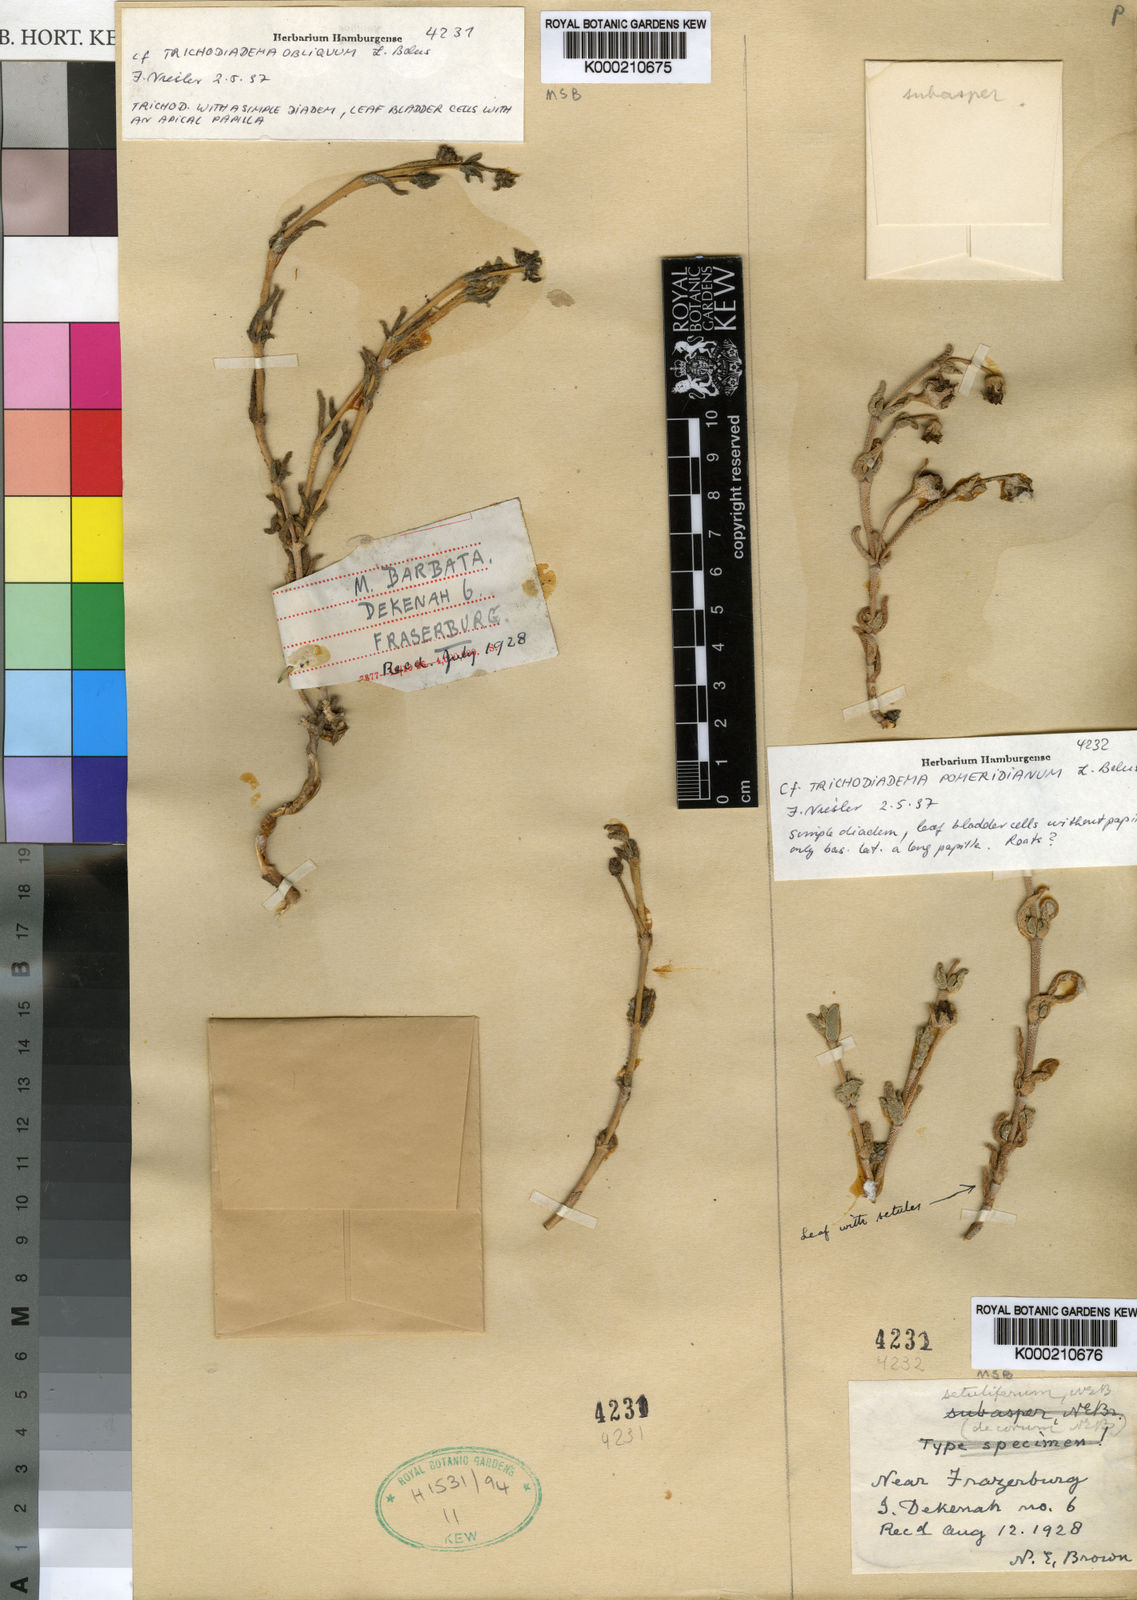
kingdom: Plantae
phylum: Tracheophyta
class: Magnoliopsida
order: Caryophyllales
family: Aizoaceae
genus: Trichodiadema
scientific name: Trichodiadema obliquum
